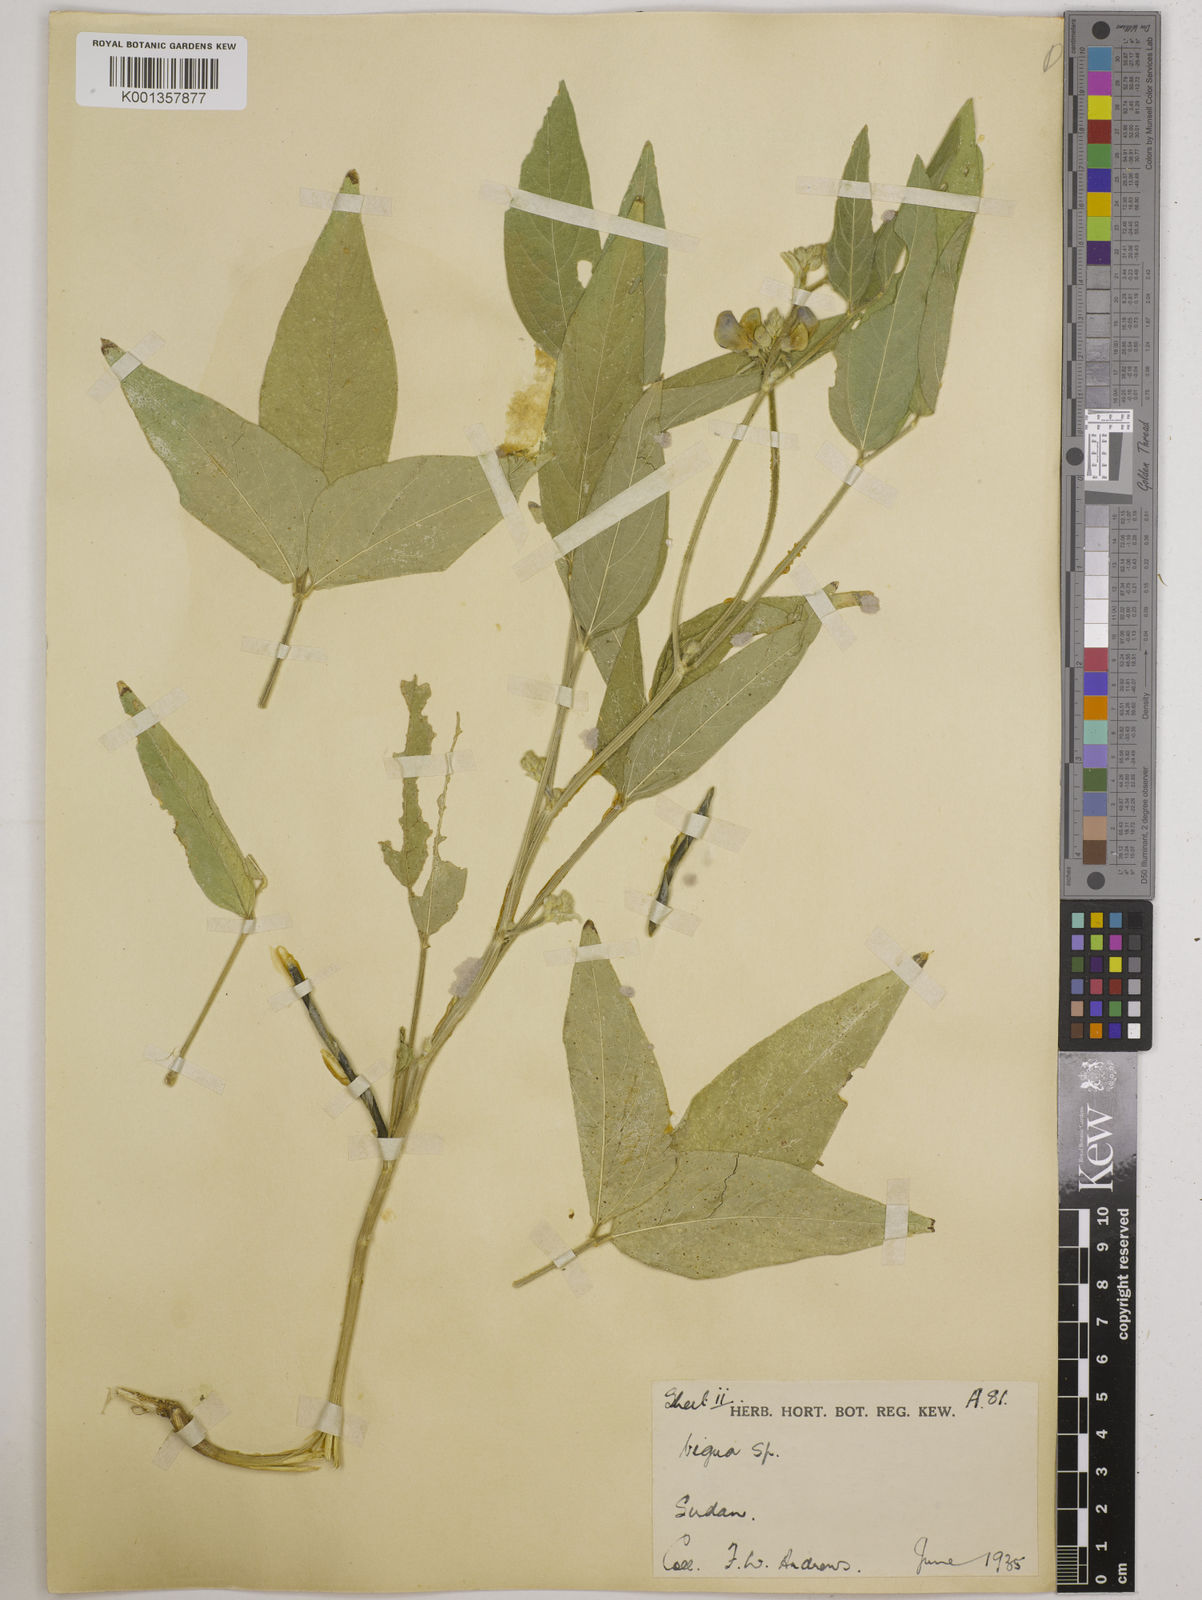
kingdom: Plantae
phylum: Tracheophyta
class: Magnoliopsida
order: Fabales
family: Fabaceae
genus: Vigna
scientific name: Vigna ambacensis
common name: Tsarkiyan zomo
